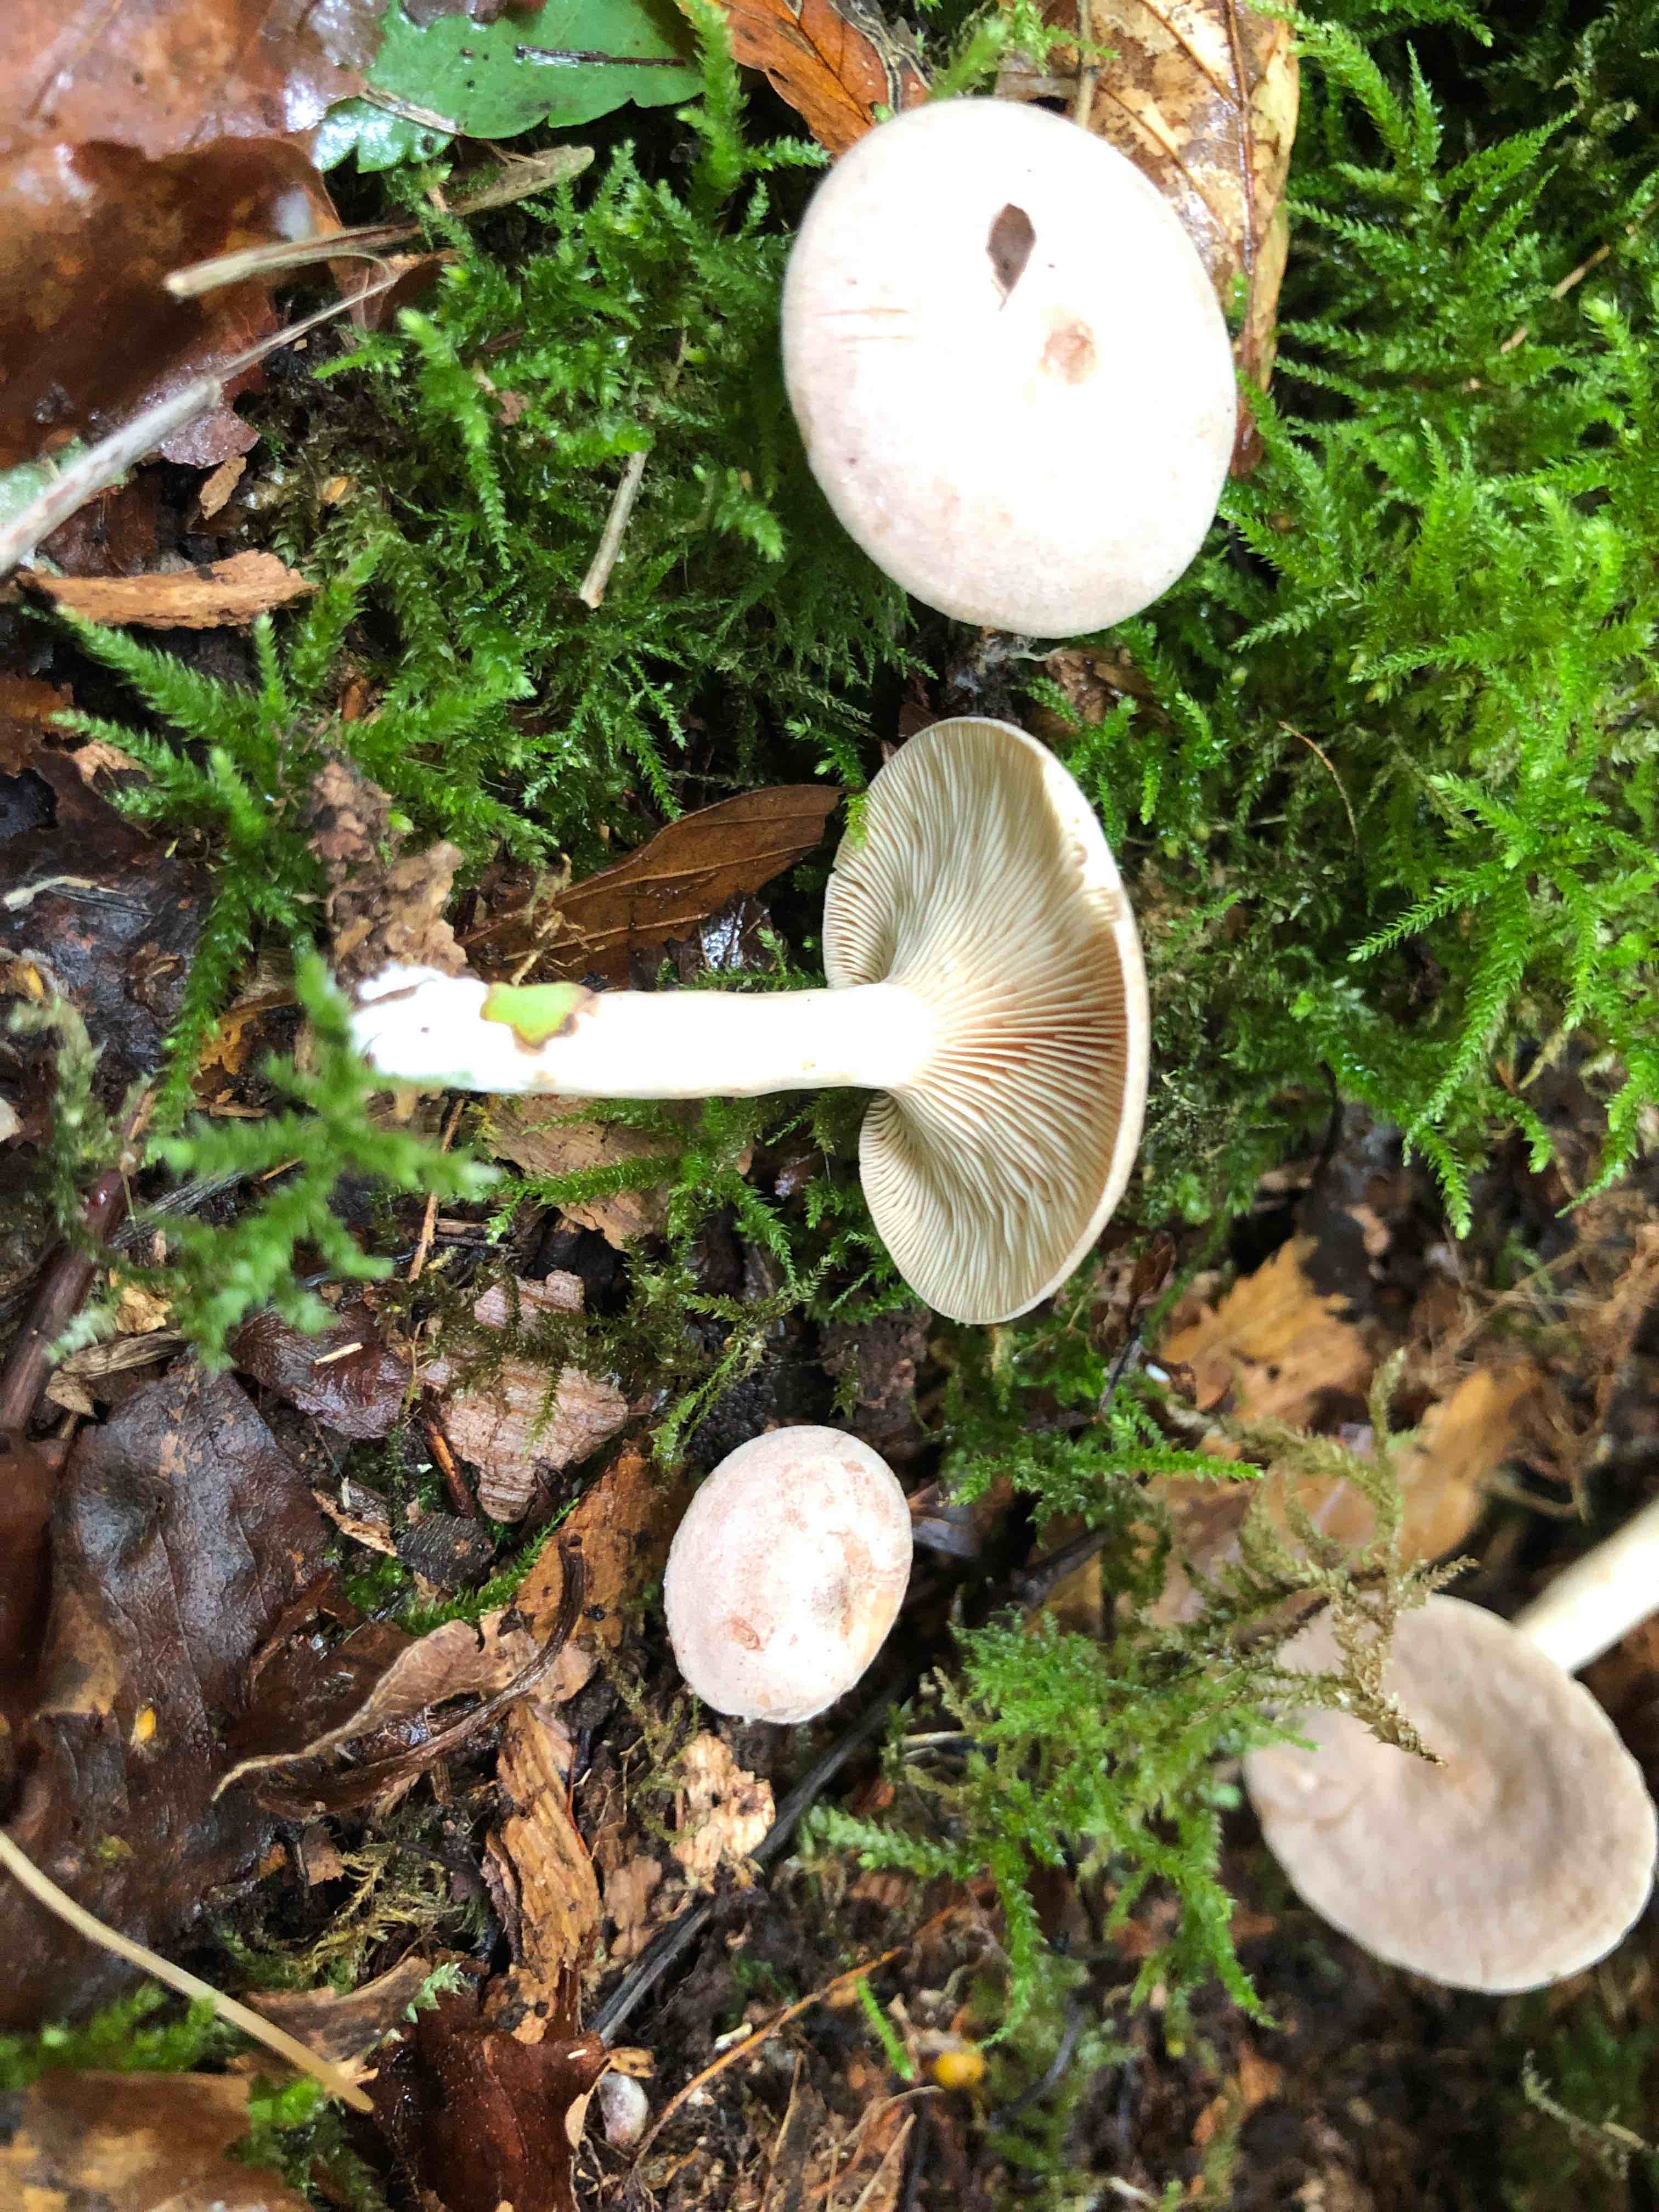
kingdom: Fungi
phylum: Basidiomycota
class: Agaricomycetes
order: Russulales
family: Russulaceae
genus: Lactarius
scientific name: Lactarius glyciosmus
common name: kokos-mælkehat
